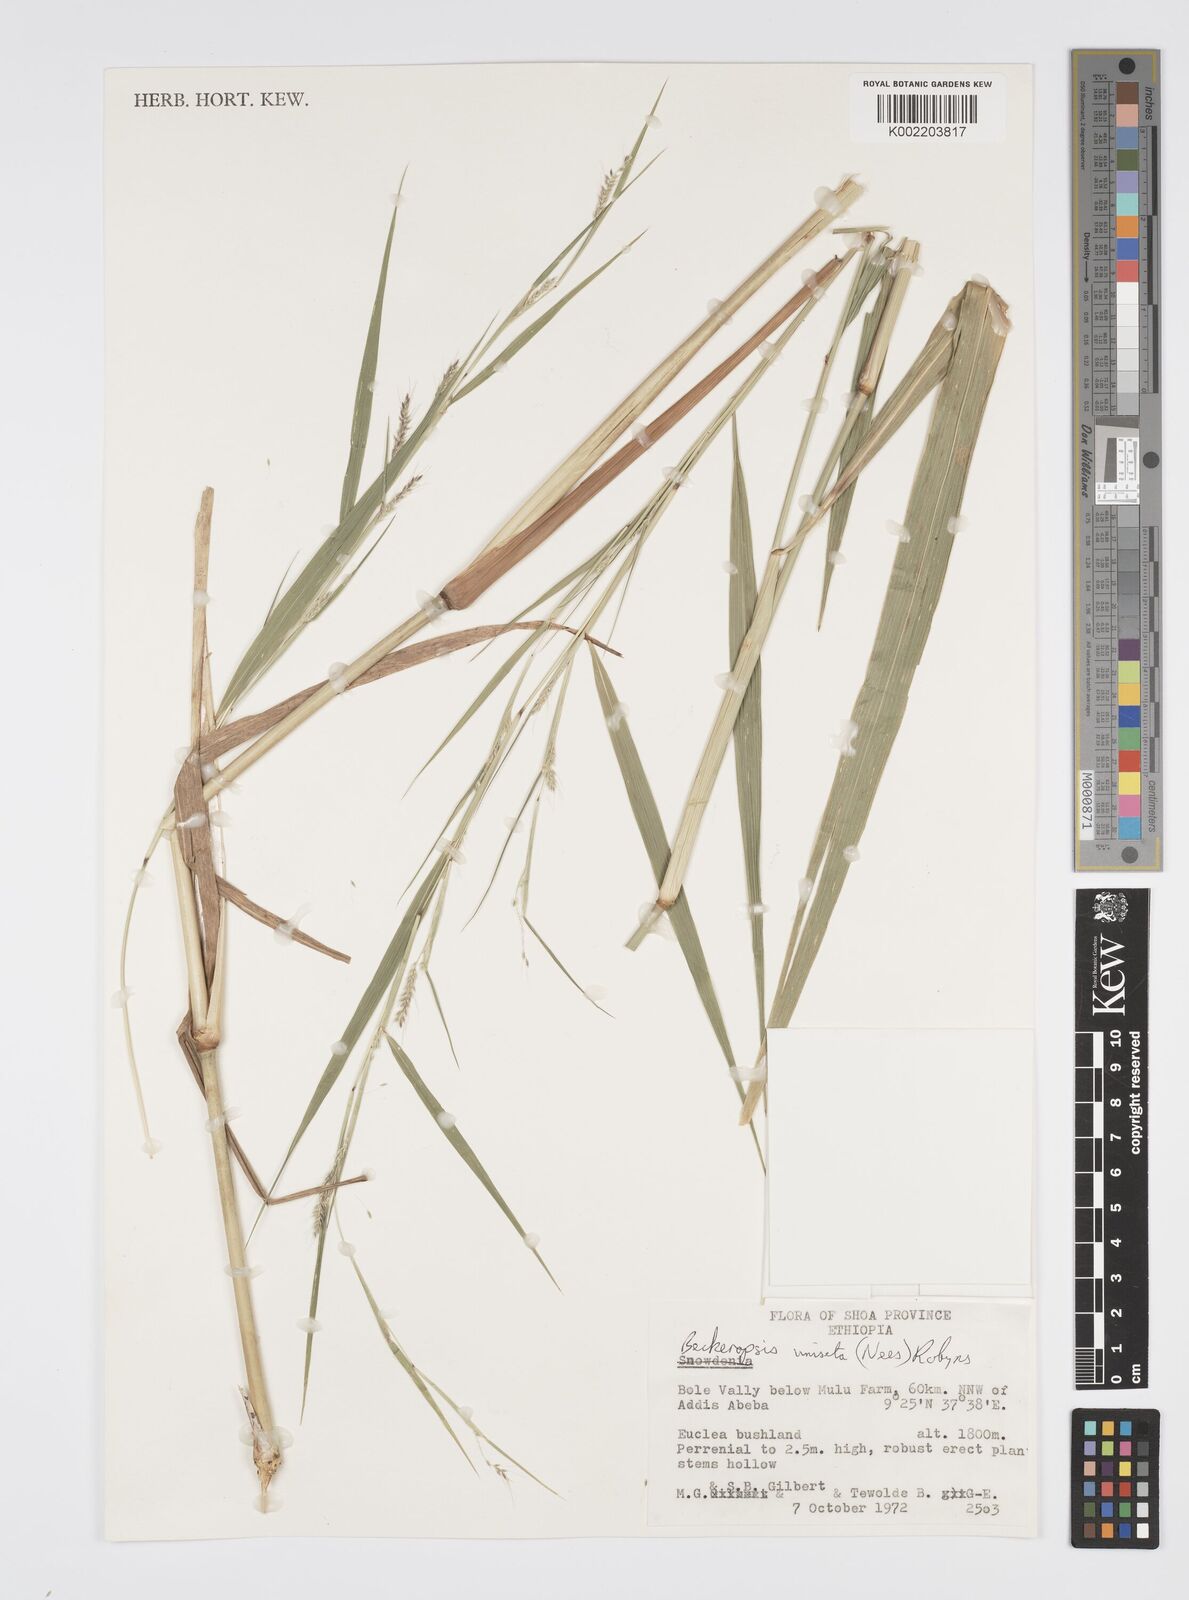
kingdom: Plantae
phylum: Tracheophyta
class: Liliopsida
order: Poales
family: Poaceae
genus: Cenchrus
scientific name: Cenchrus unisetus
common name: Natal grass
